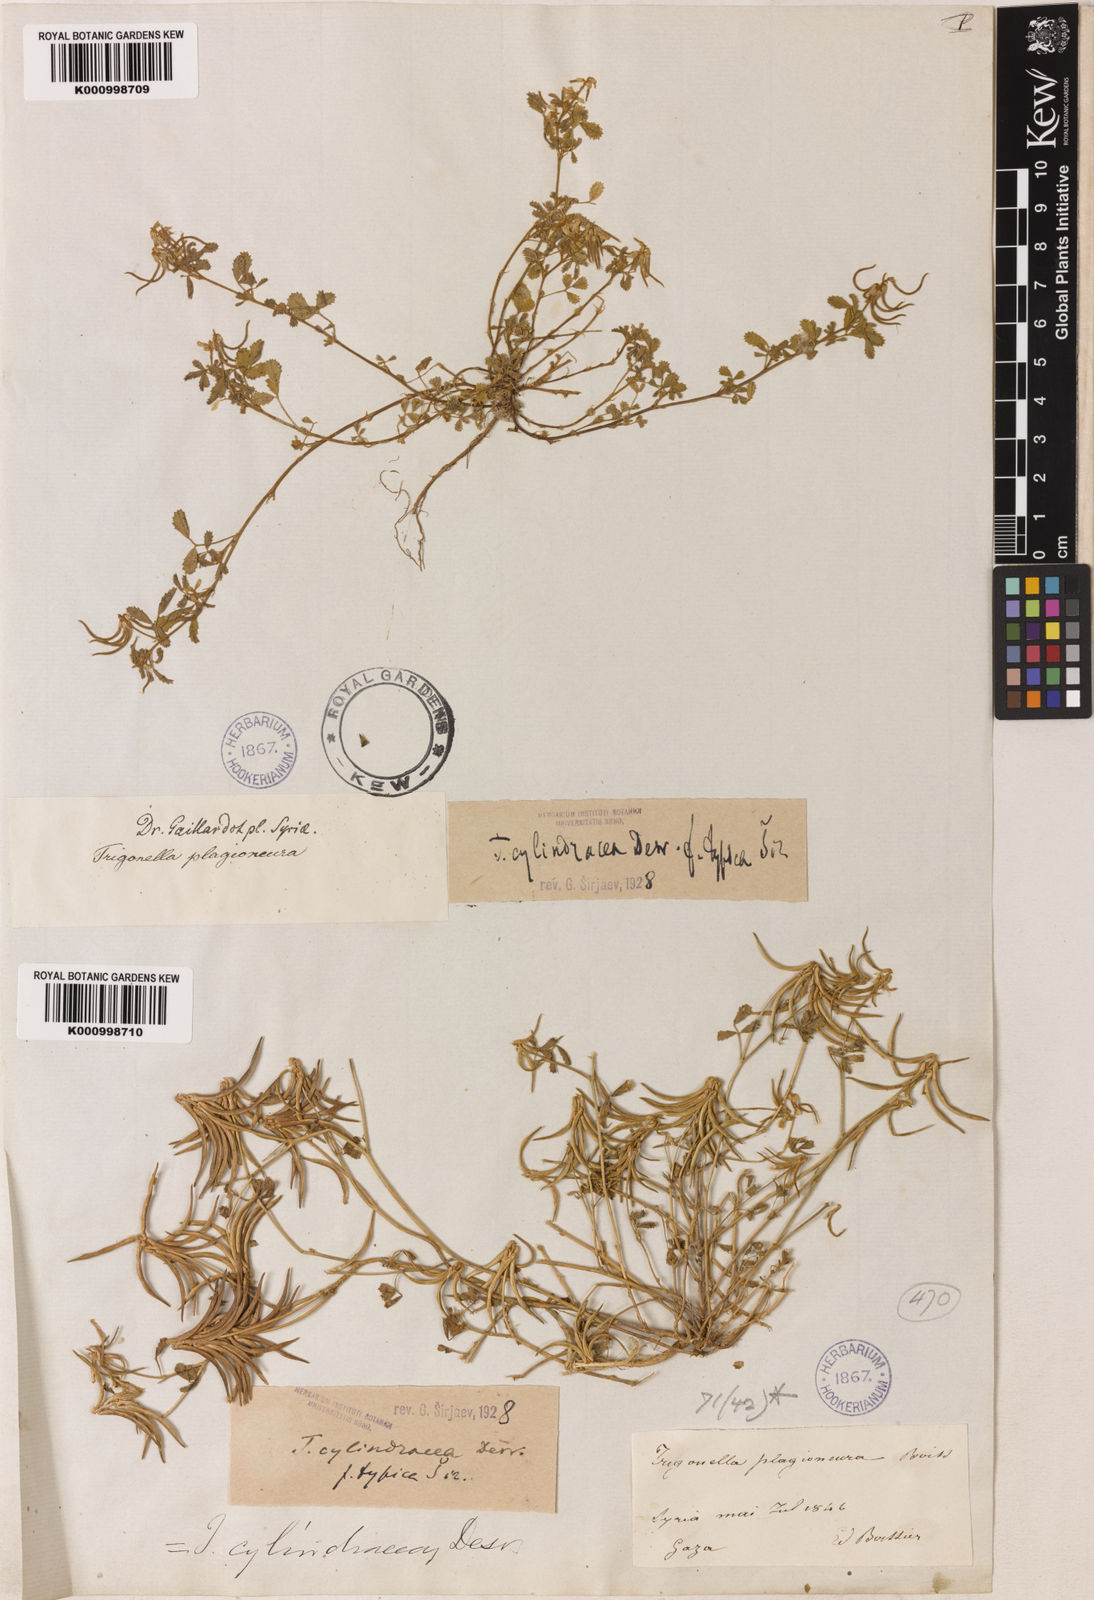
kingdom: Plantae
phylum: Tracheophyta
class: Magnoliopsida
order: Fabales
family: Fabaceae
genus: Trigonella
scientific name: Trigonella cylindracea
